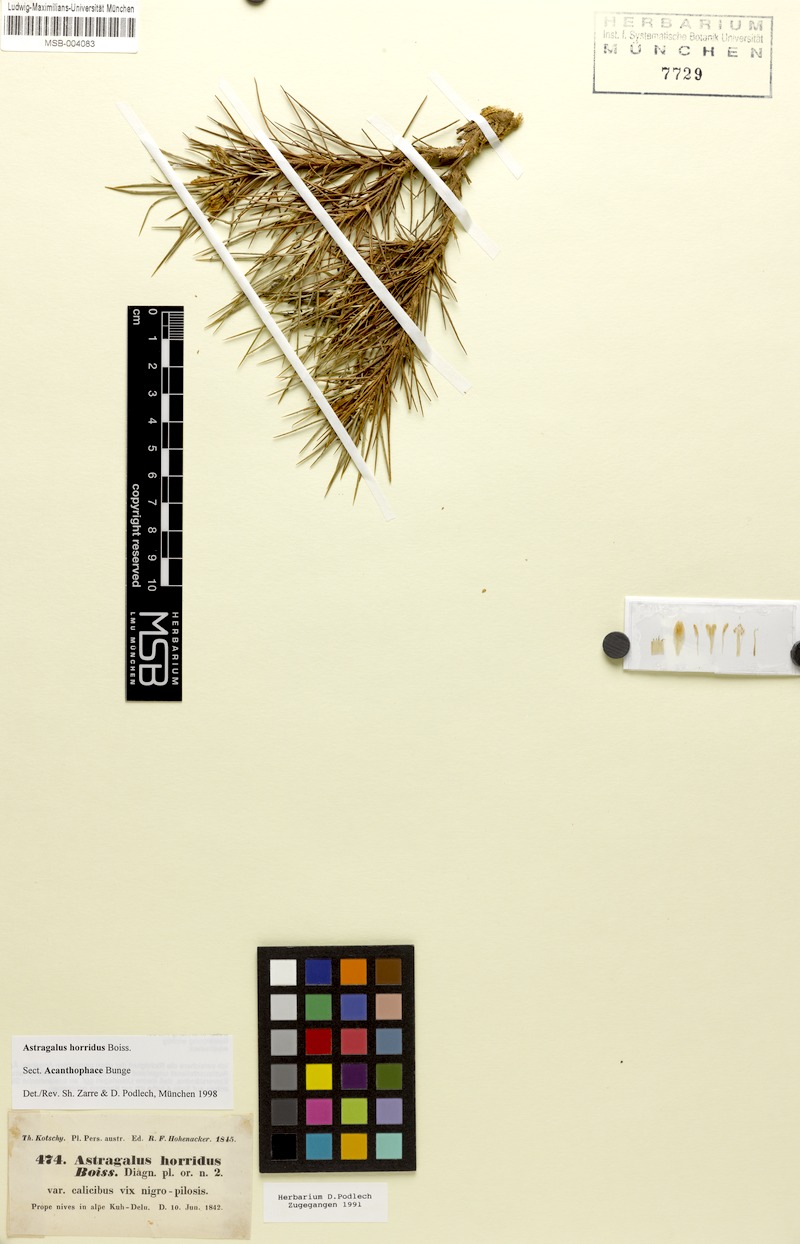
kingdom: Plantae
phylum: Tracheophyta
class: Magnoliopsida
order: Fabales
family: Fabaceae
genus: Astragalus
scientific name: Astragalus horridus
